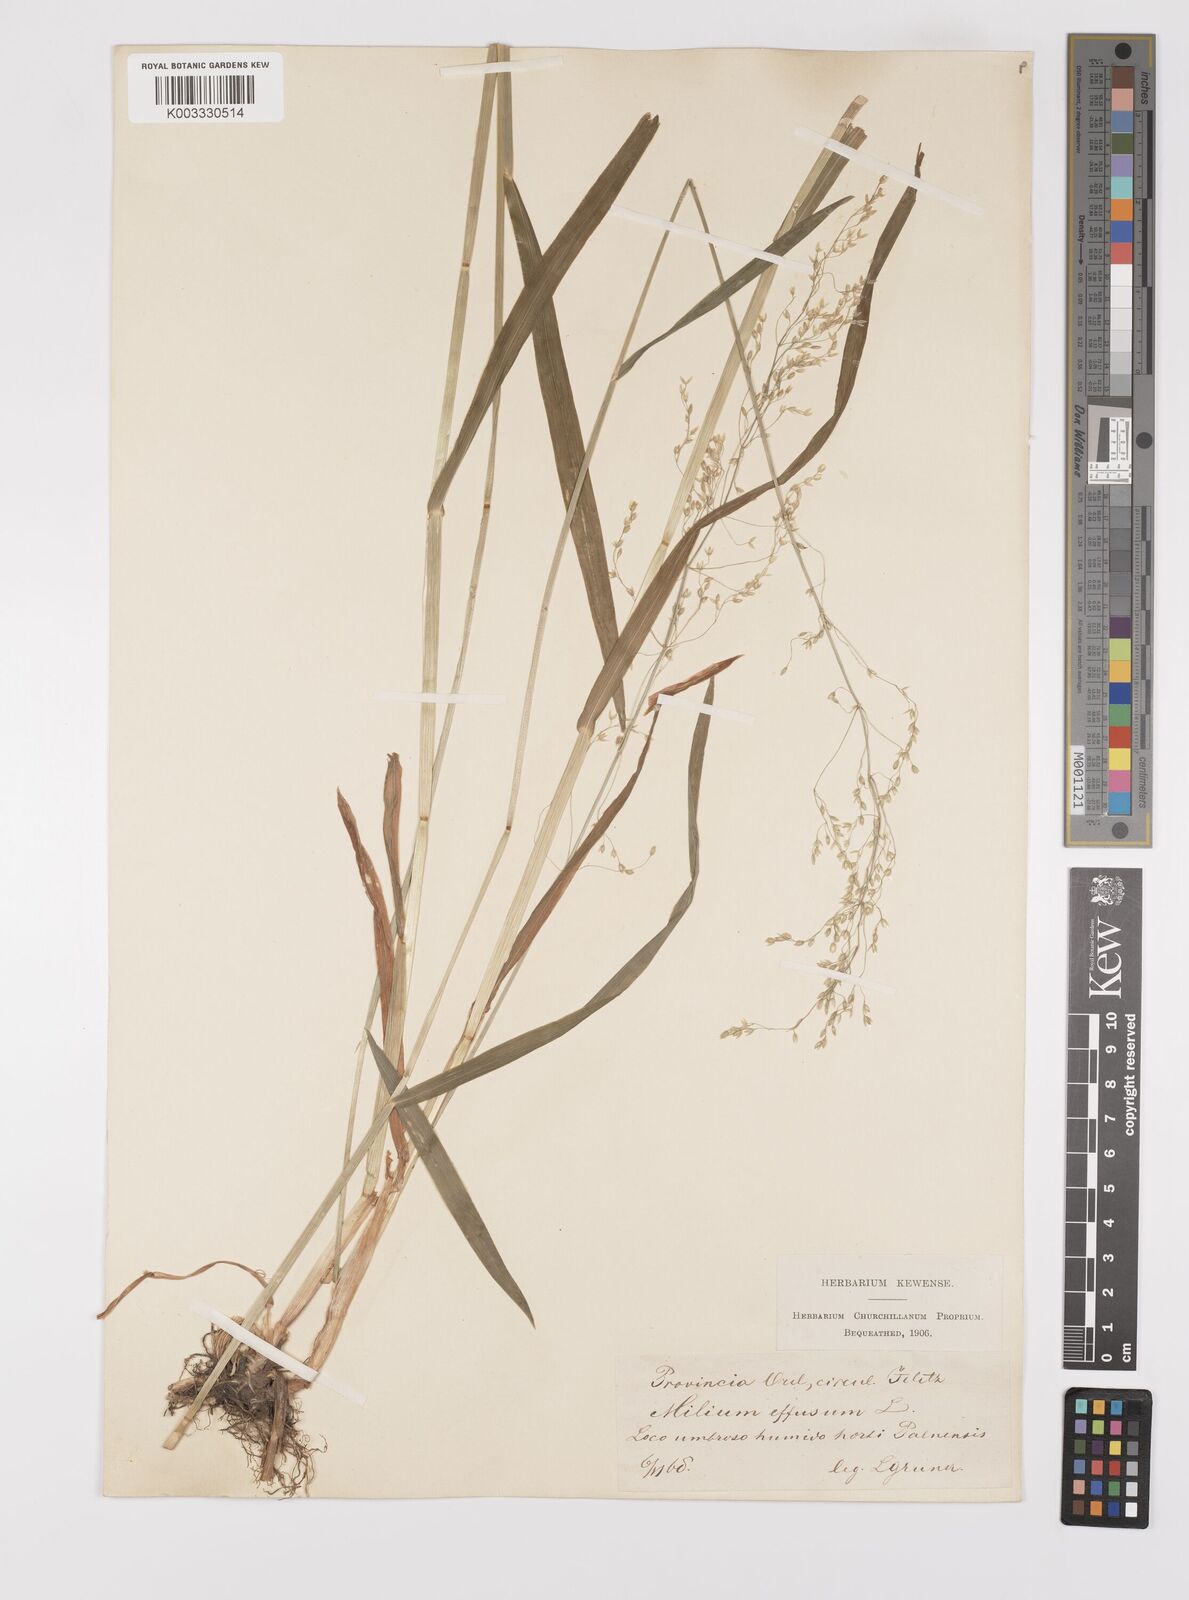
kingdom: Plantae
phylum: Tracheophyta
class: Liliopsida
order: Poales
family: Poaceae
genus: Milium
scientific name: Milium
